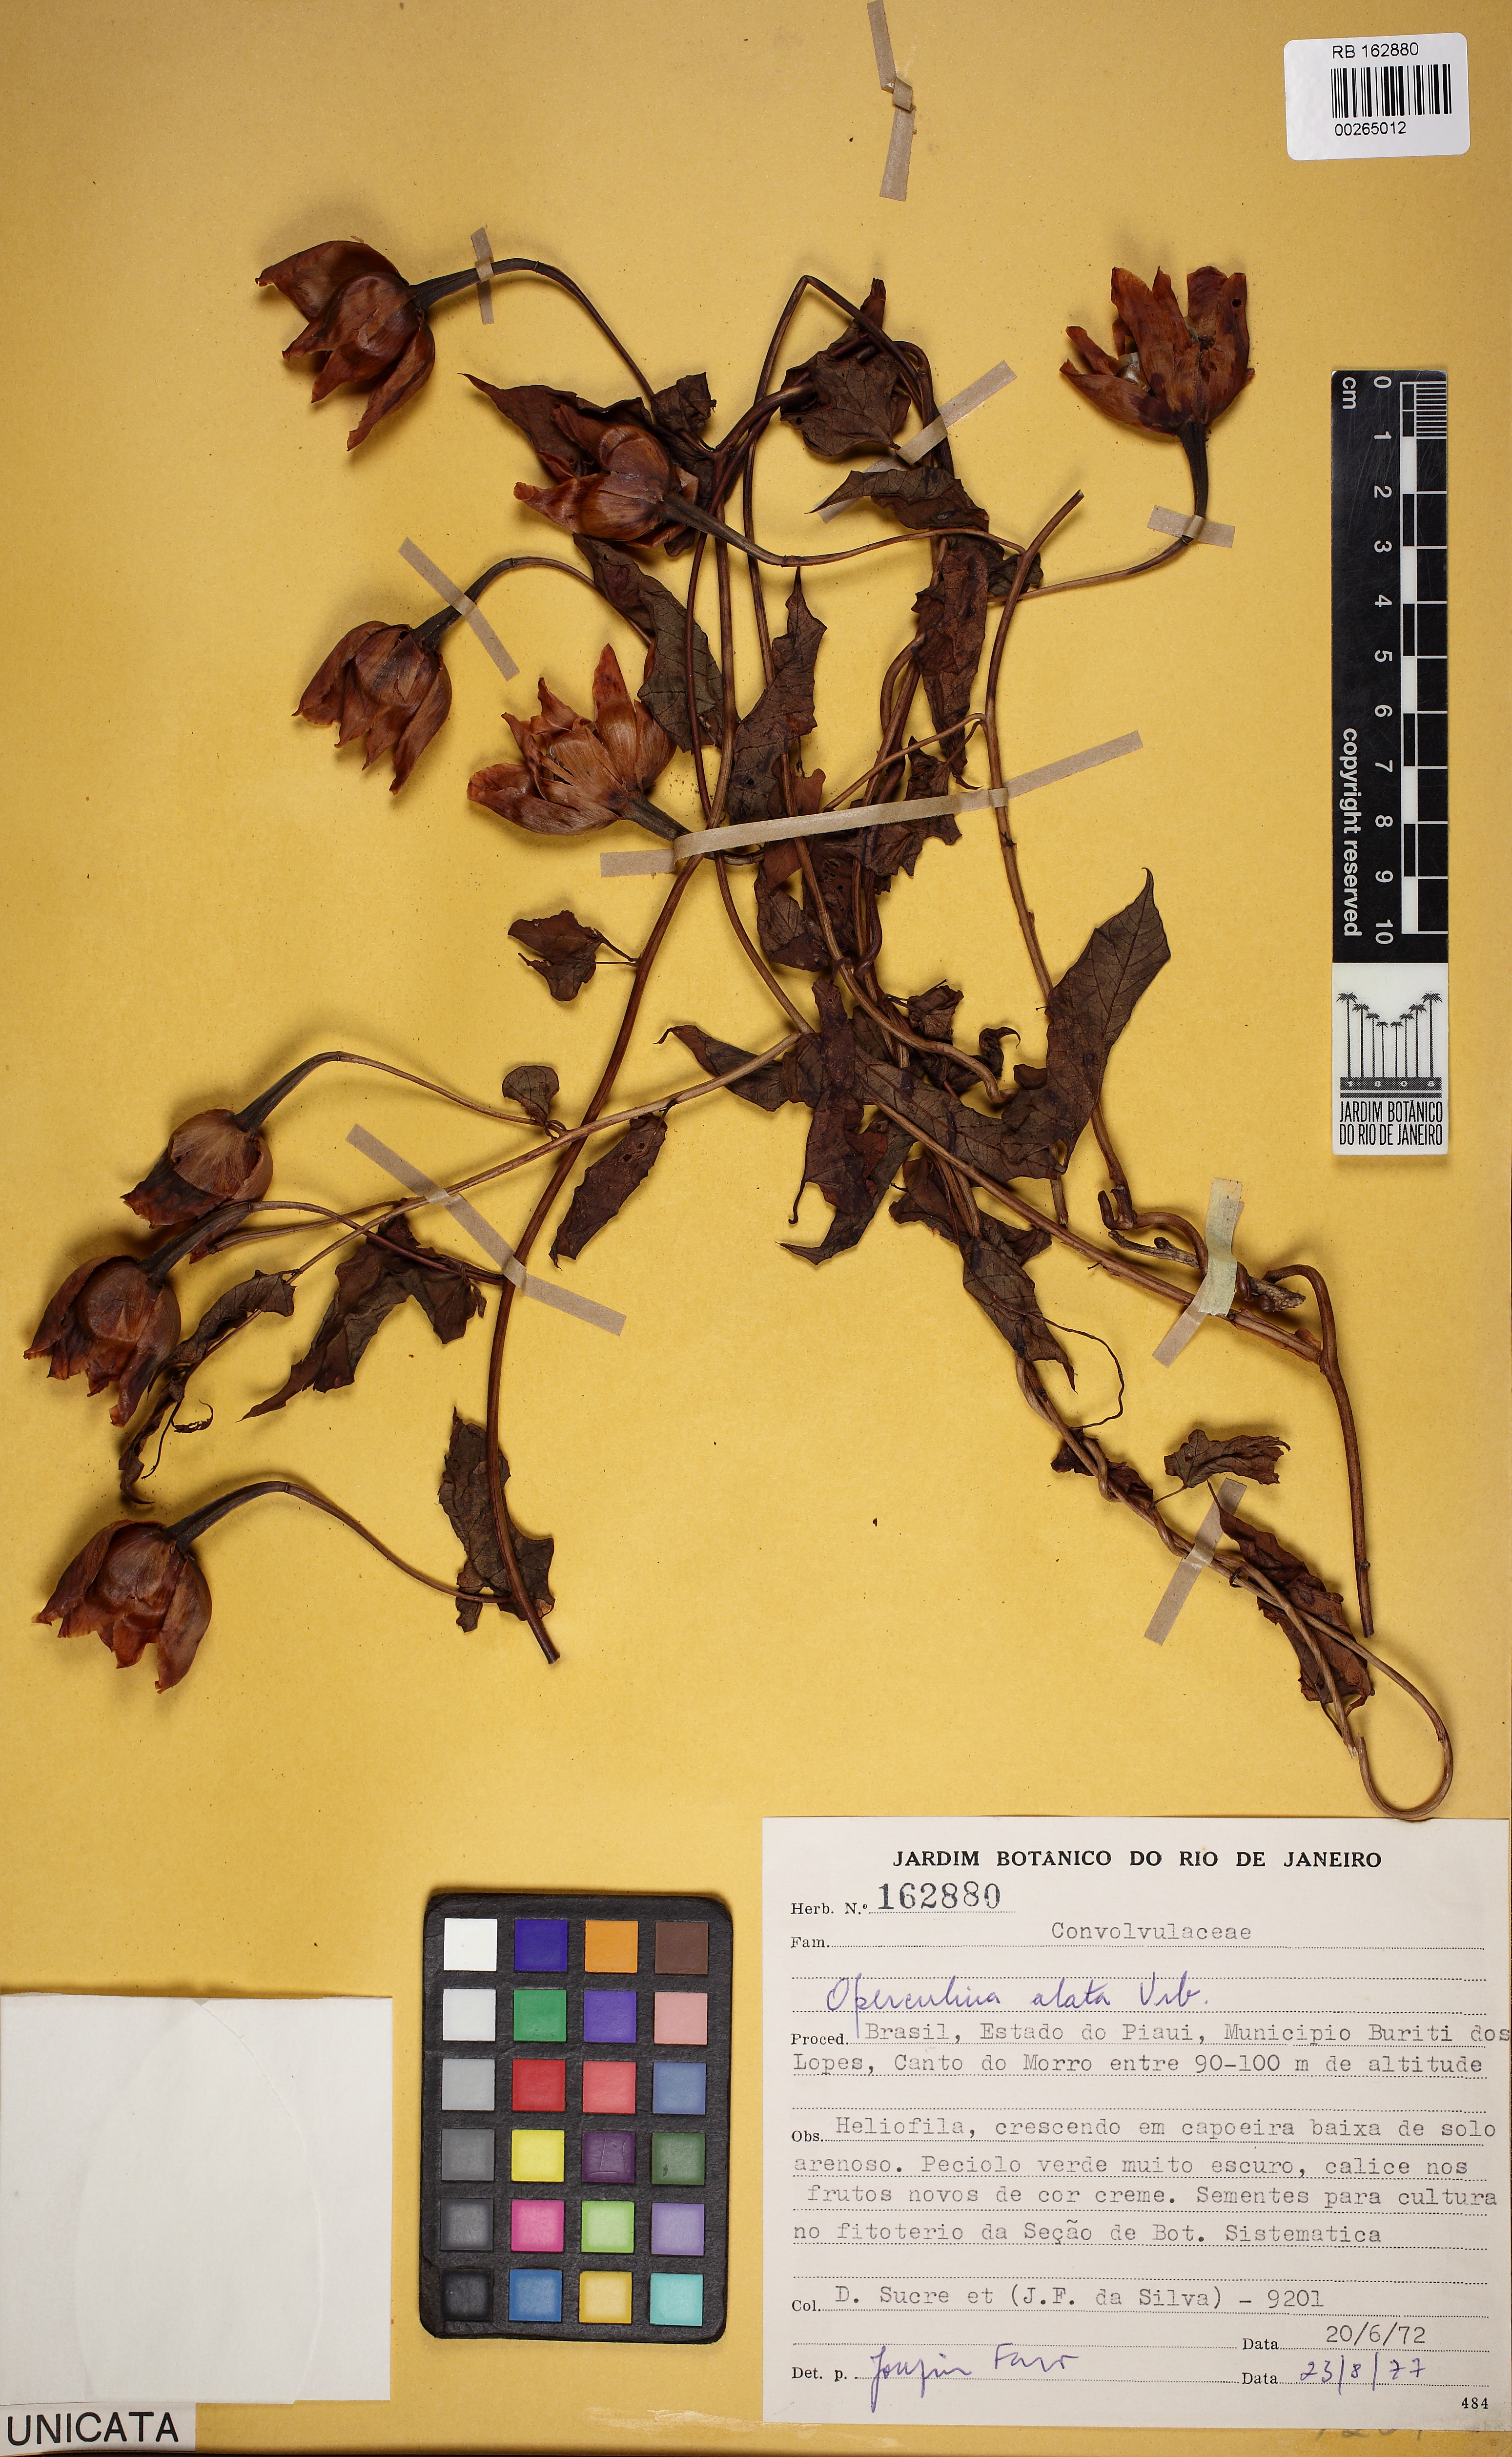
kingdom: Plantae
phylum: Tracheophyta
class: Magnoliopsida
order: Solanales
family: Convolvulaceae
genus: Operculina
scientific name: Operculina hamiltonii
